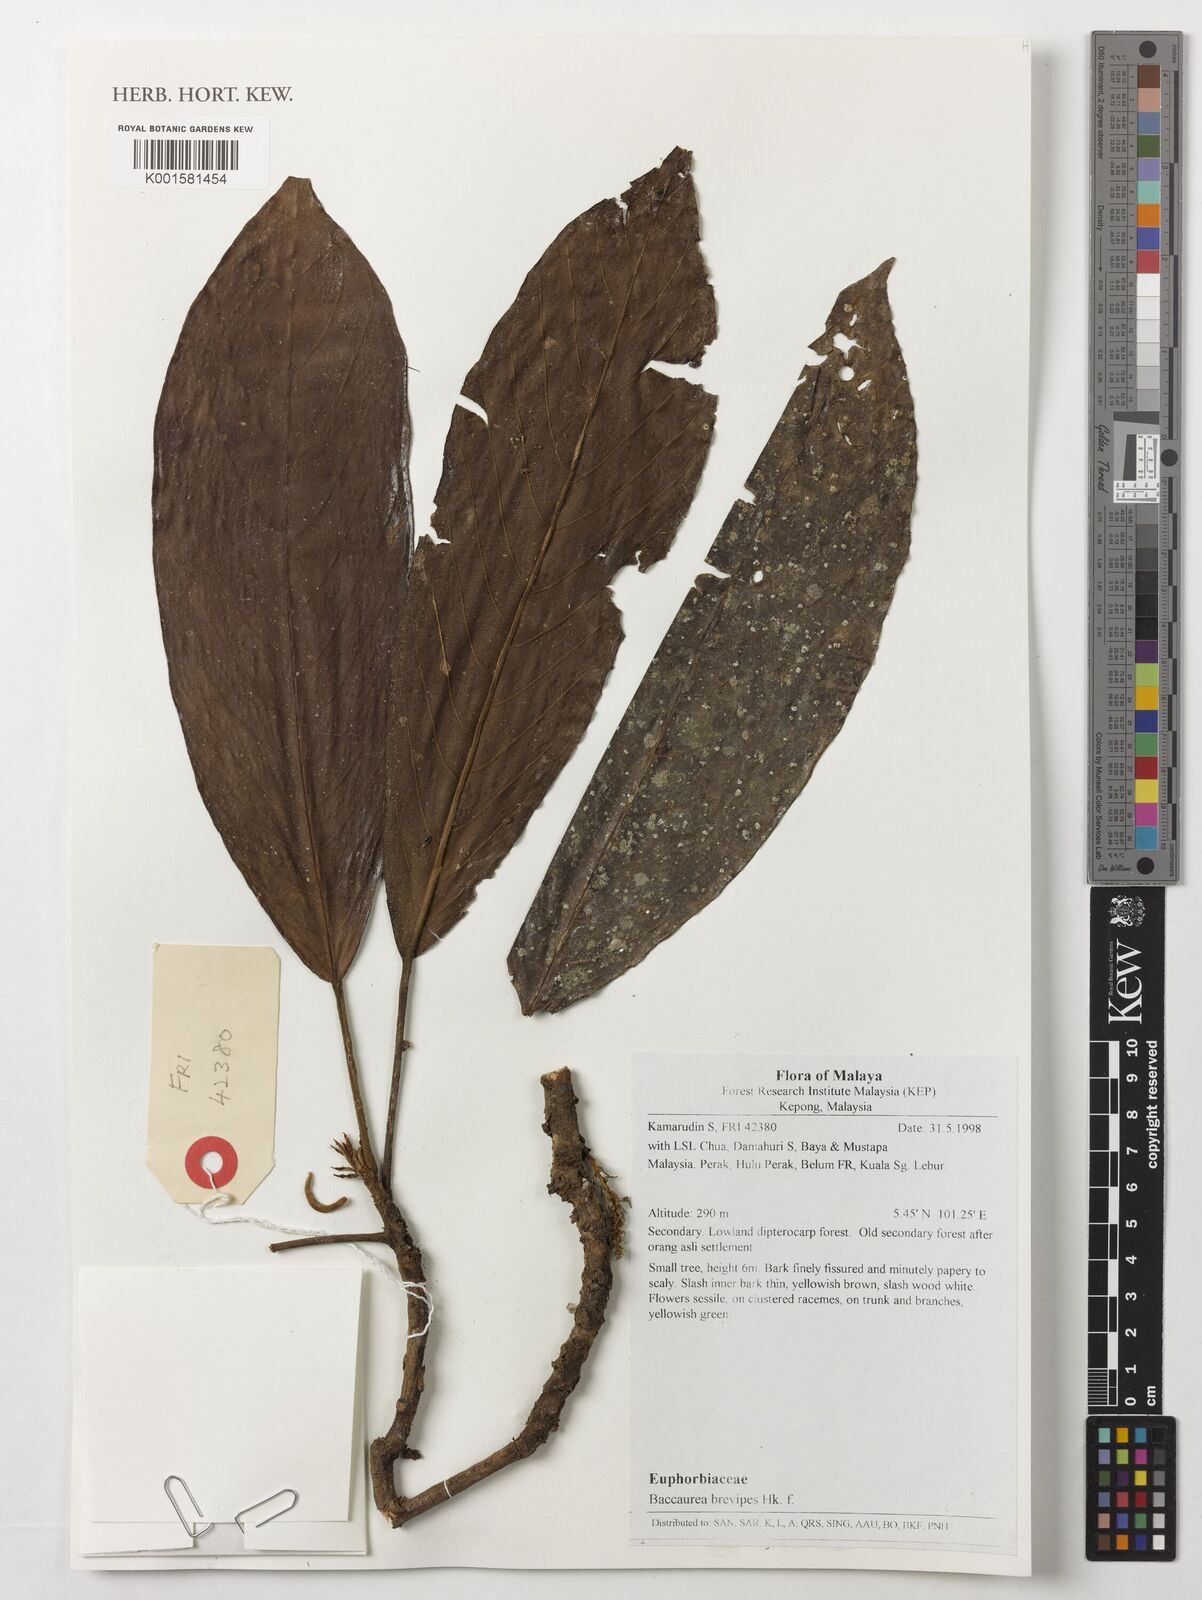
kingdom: Plantae
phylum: Tracheophyta
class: Magnoliopsida
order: Malpighiales
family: Phyllanthaceae
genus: Baccaurea
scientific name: Baccaurea brevipes
